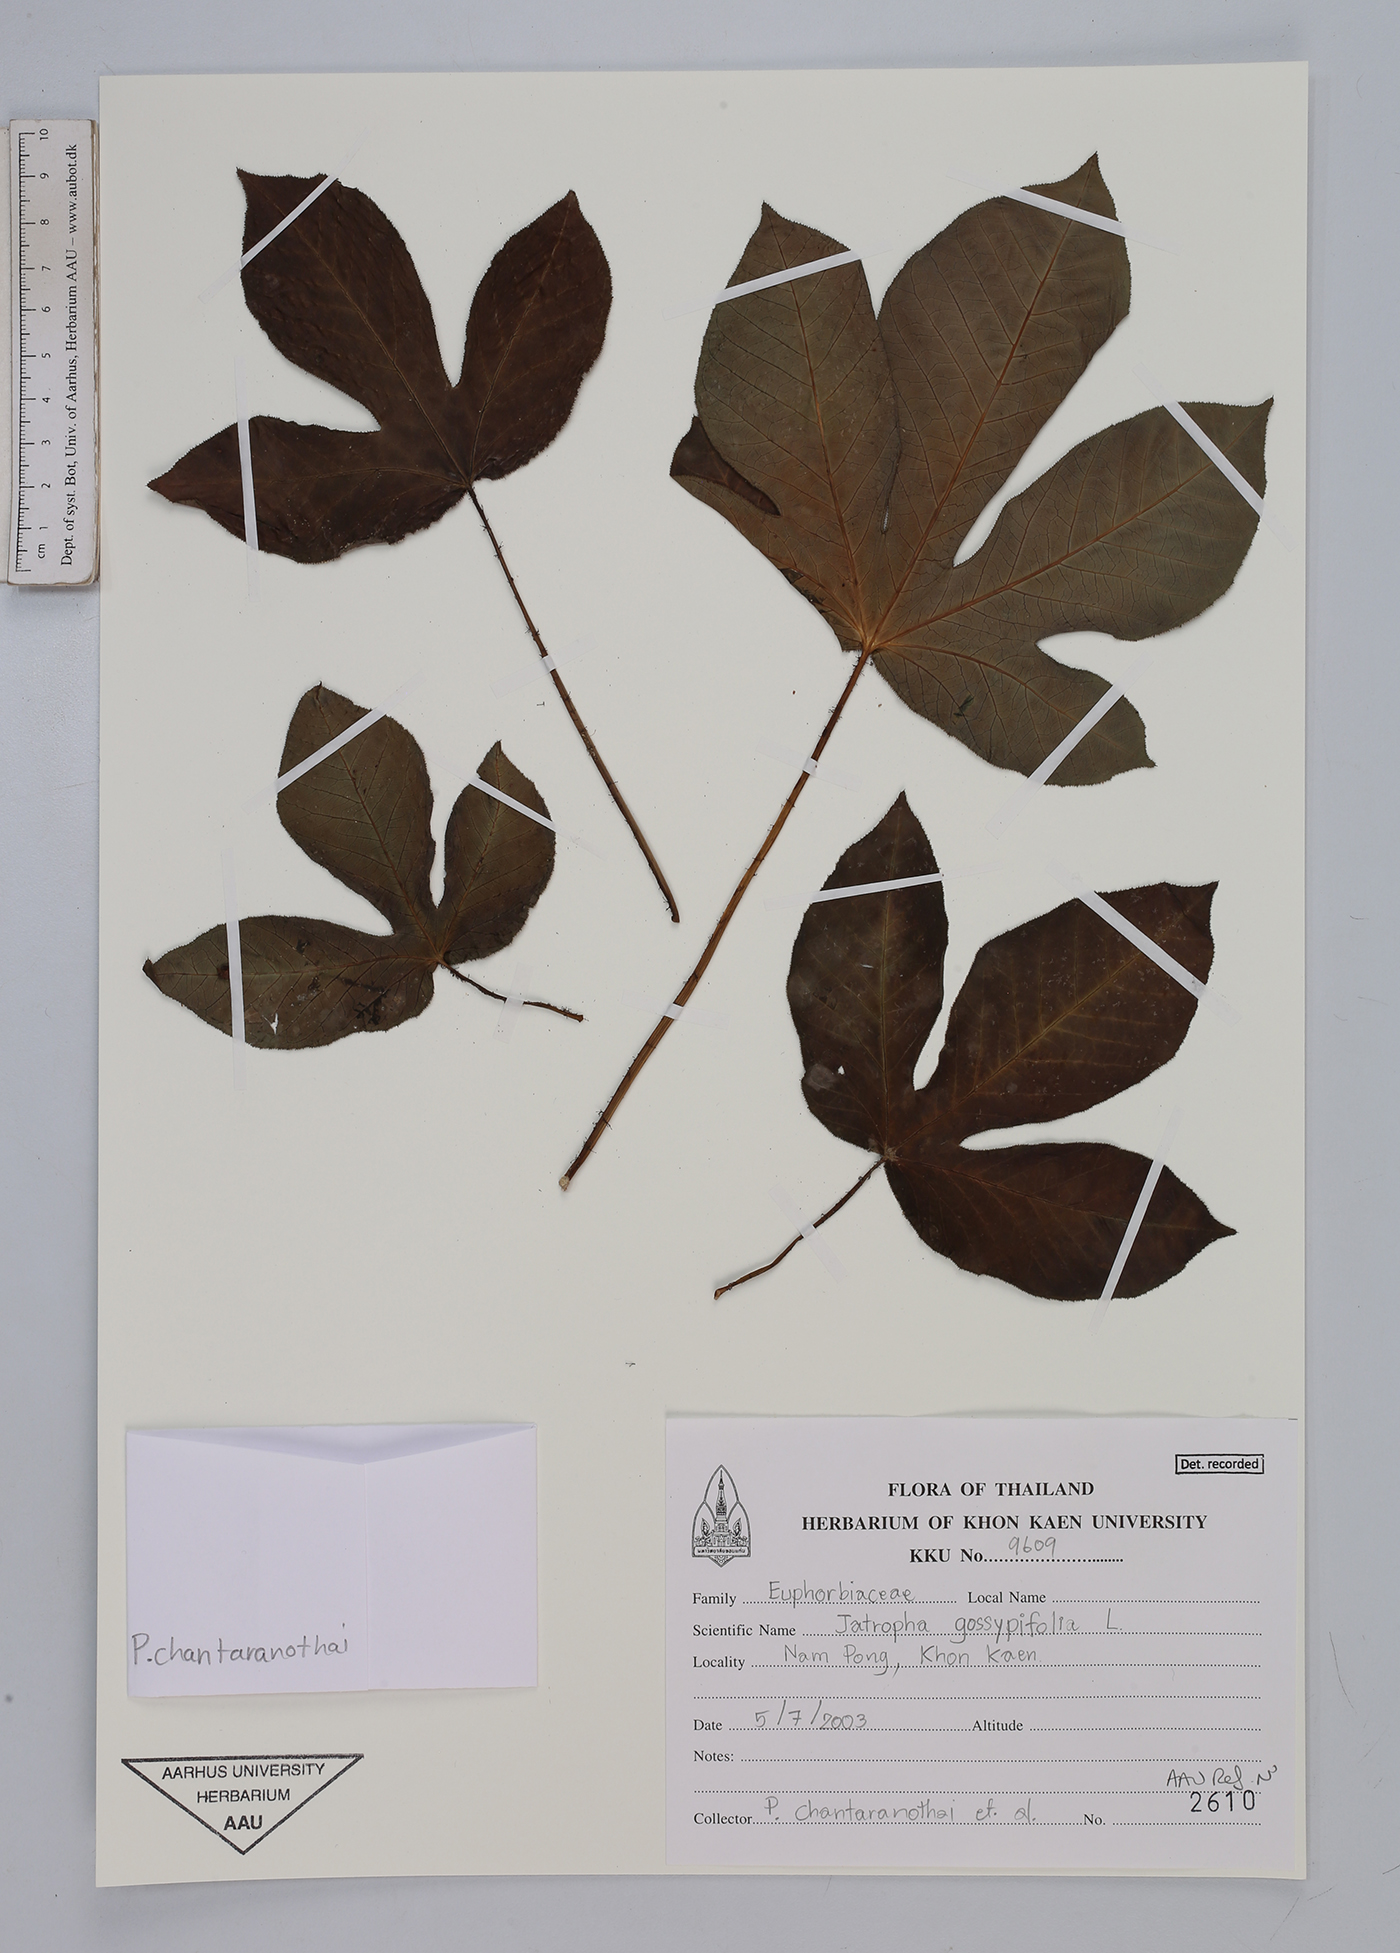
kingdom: Plantae
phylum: Tracheophyta
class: Magnoliopsida
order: Malpighiales
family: Euphorbiaceae
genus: Jatropha
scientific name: Jatropha gossypiifolia
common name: Bellyache bush
